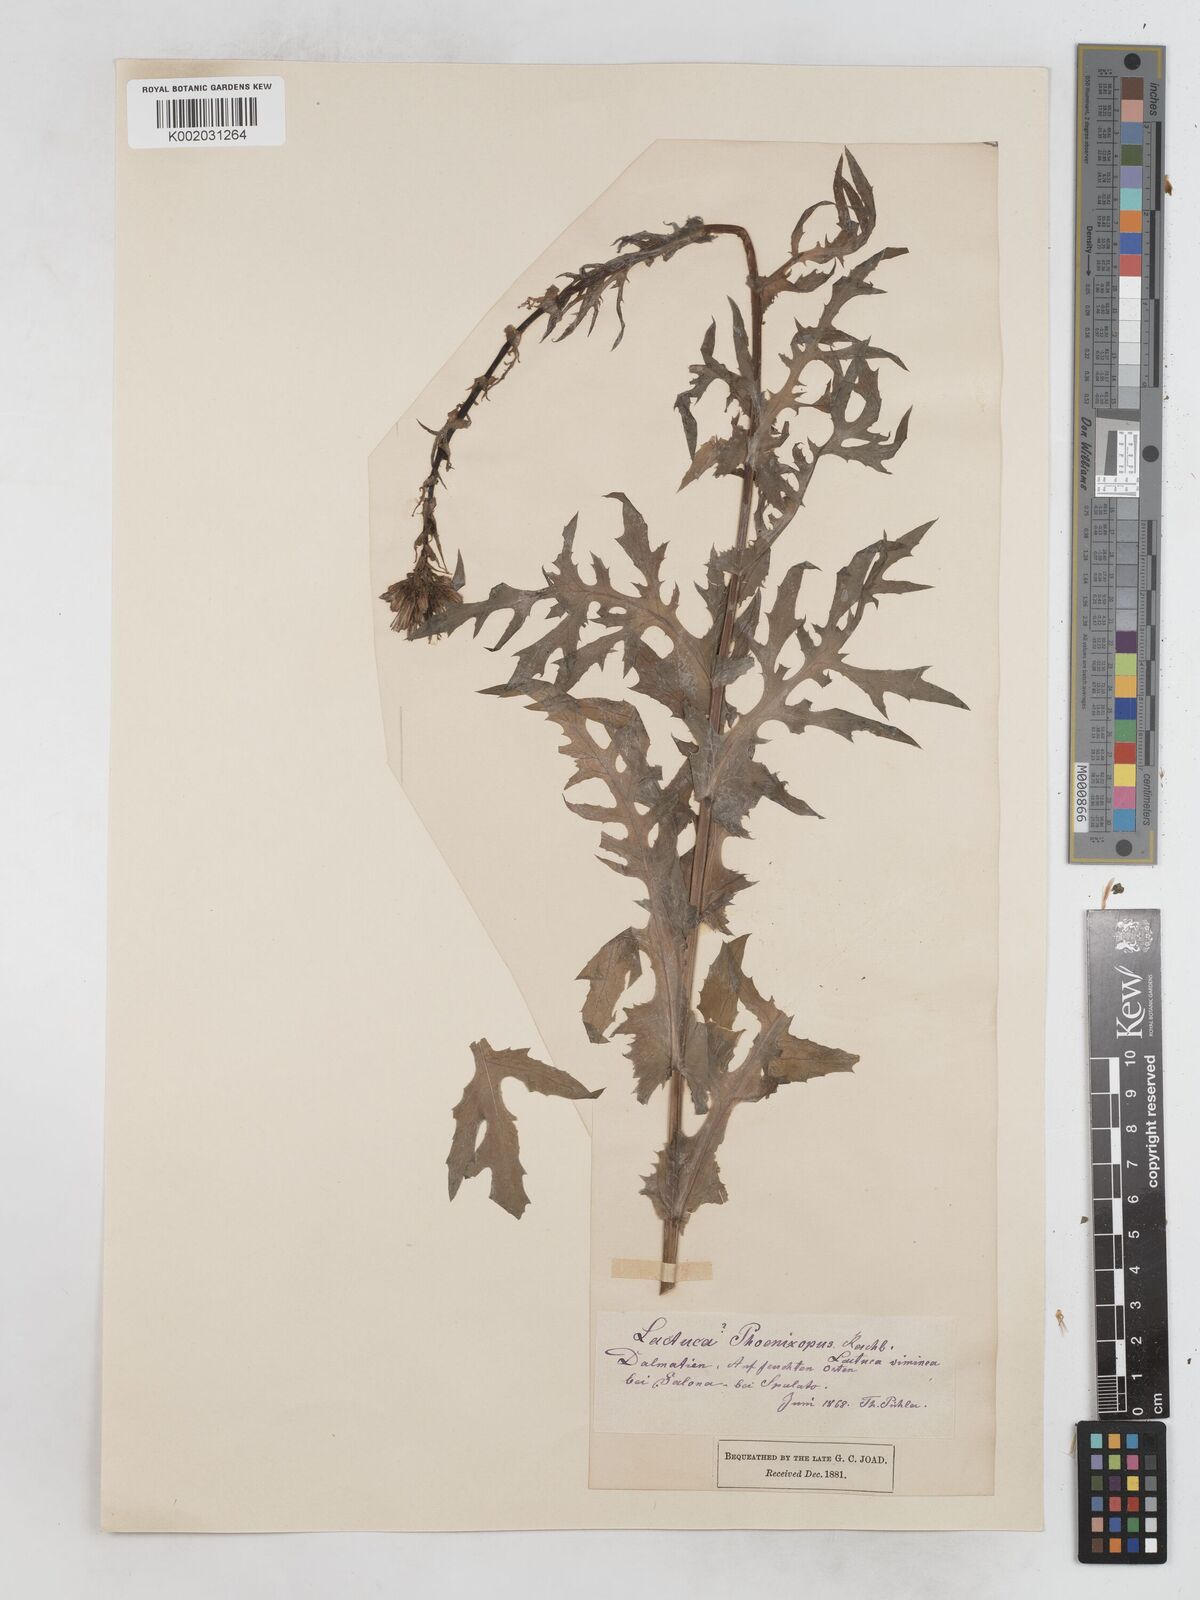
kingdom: Plantae
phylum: Tracheophyta
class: Magnoliopsida
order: Asterales
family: Asteraceae
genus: Lactuca
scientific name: Lactuca quercina
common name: Wild lettuce
